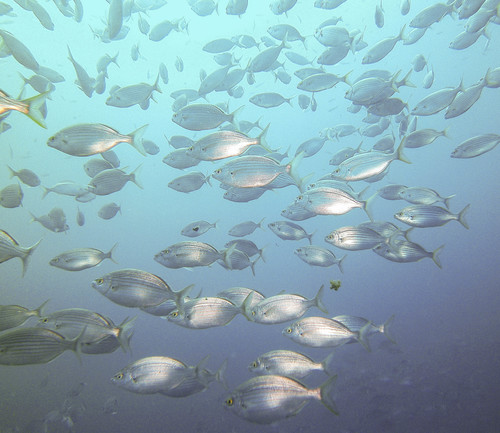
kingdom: Animalia
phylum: Chordata
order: Perciformes
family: Sparidae
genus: Sarpa
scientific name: Sarpa salpa
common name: Salema
